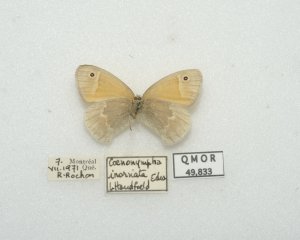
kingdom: Animalia
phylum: Arthropoda
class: Insecta
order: Lepidoptera
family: Nymphalidae
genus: Coenonympha
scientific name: Coenonympha tullia
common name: Large Heath
